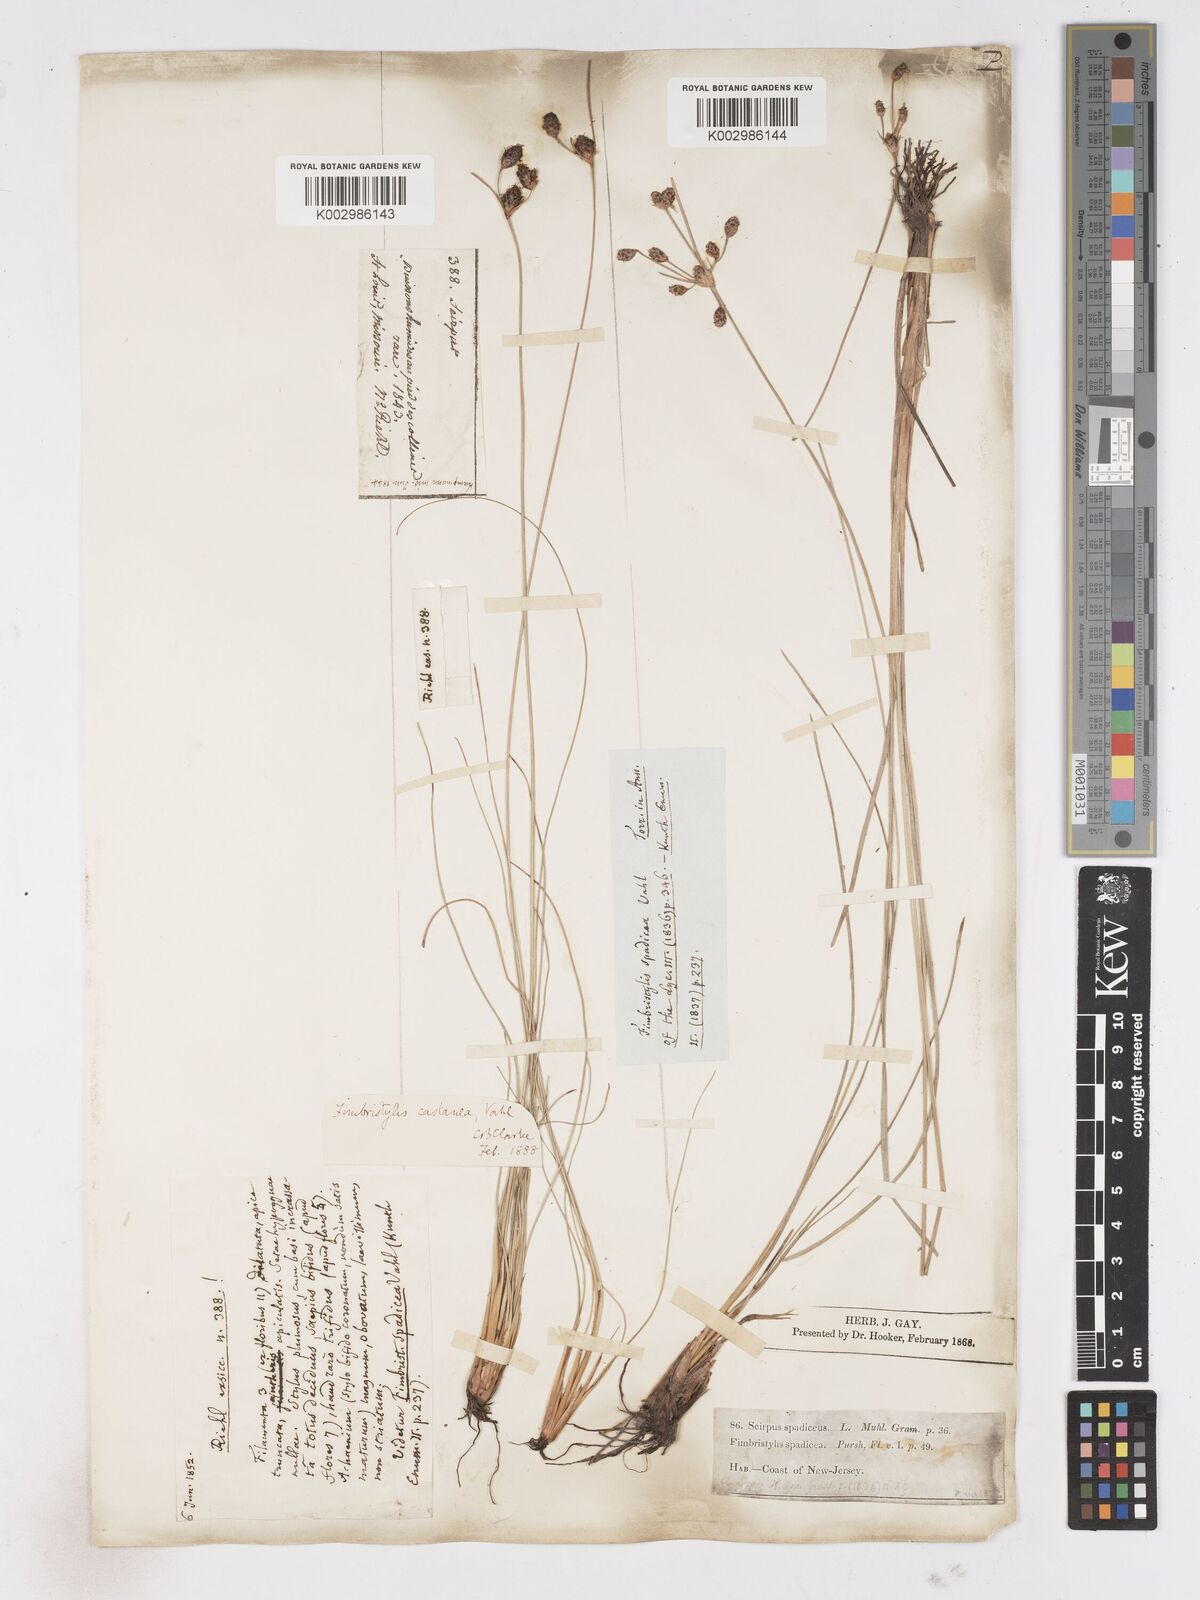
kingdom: Plantae
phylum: Tracheophyta
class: Liliopsida
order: Poales
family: Cyperaceae
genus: Fimbristylis
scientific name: Fimbristylis spadicea
